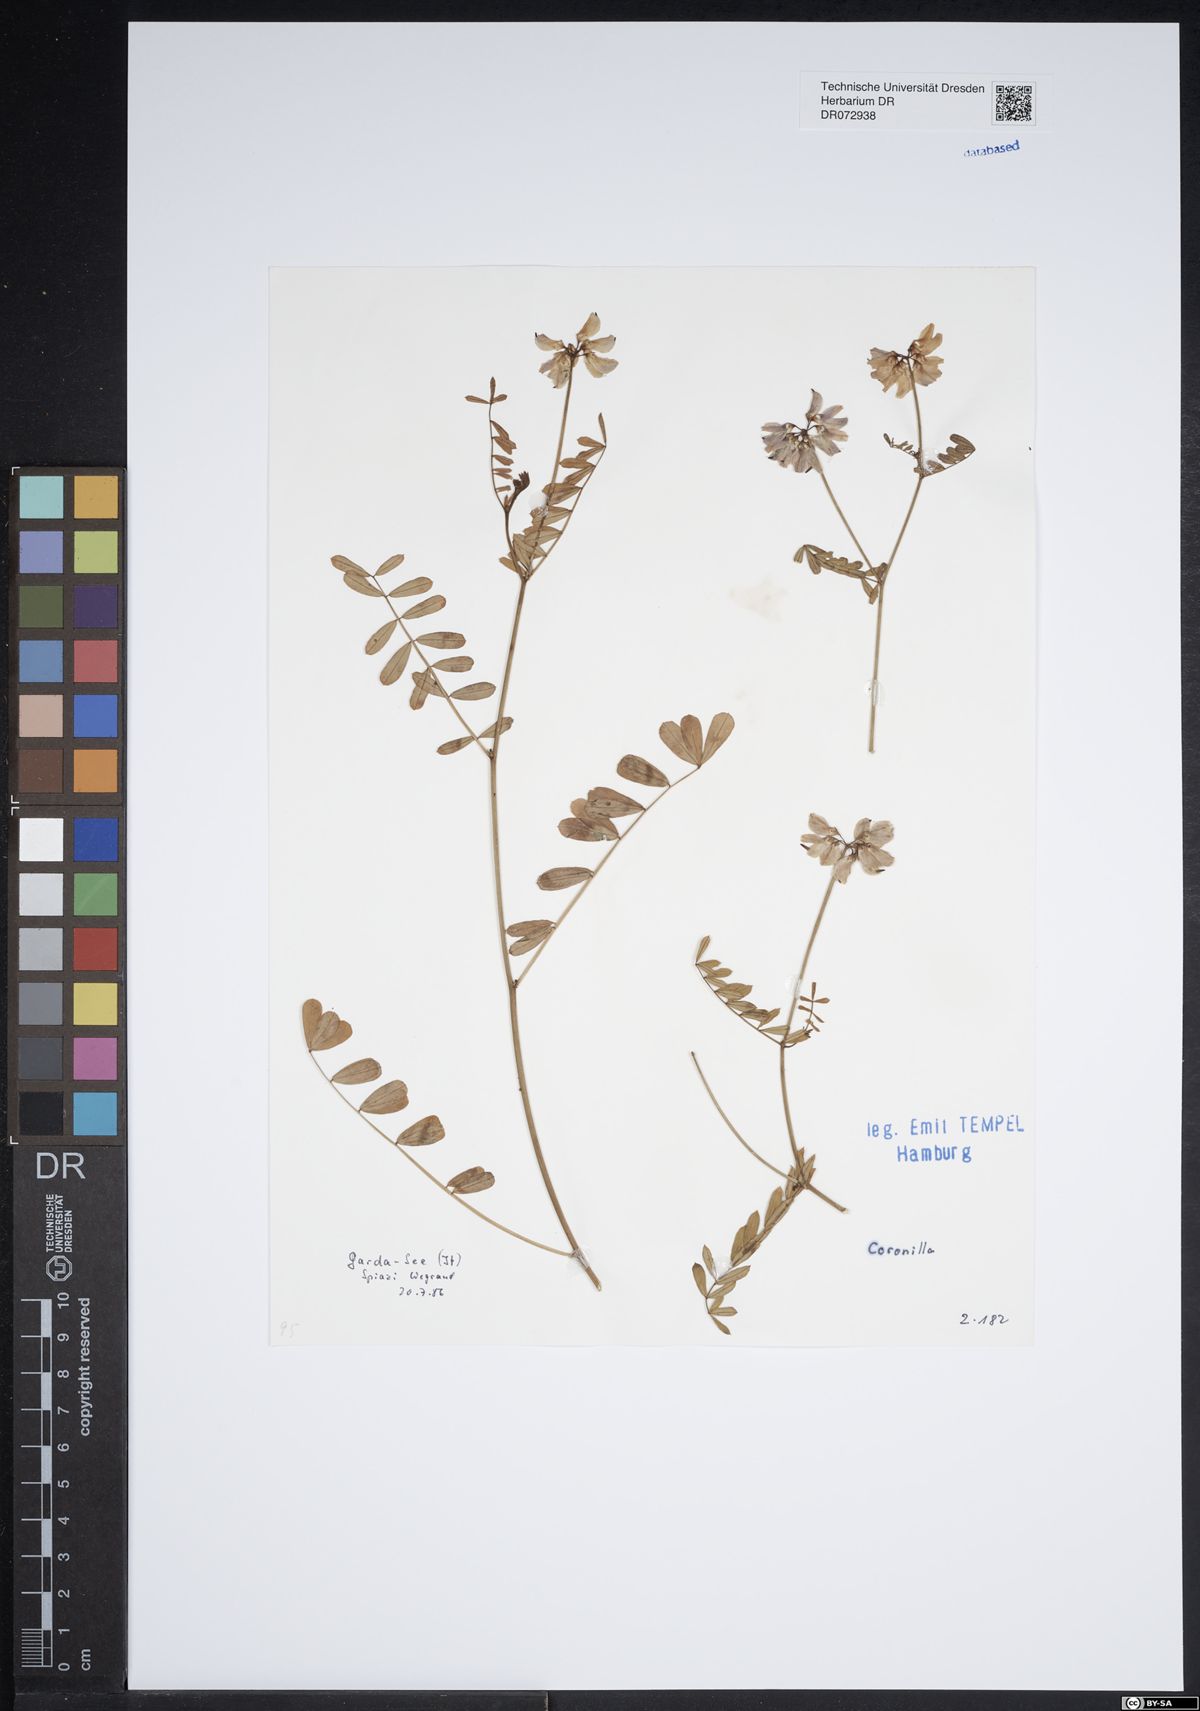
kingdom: Plantae
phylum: Tracheophyta
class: Magnoliopsida
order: Fabales
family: Fabaceae
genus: Coronilla
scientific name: Coronilla
